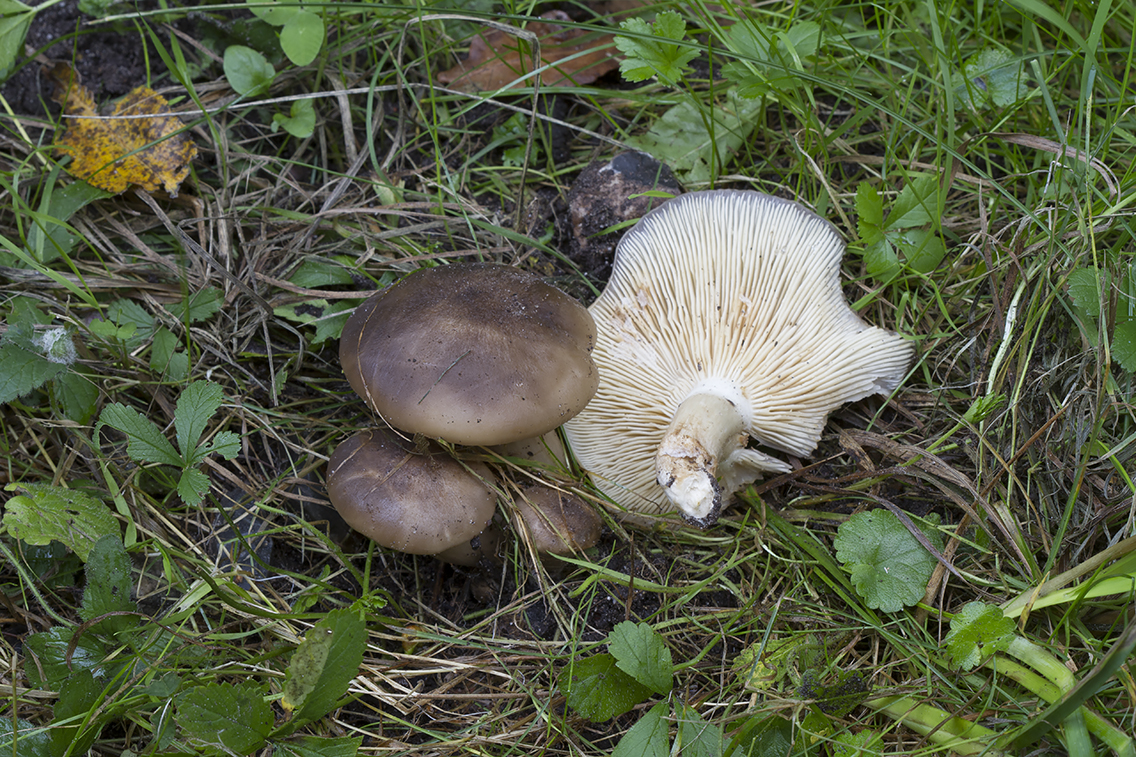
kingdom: Fungi
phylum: Basidiomycota
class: Agaricomycetes
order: Agaricales
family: Lyophyllaceae
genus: Lyophyllum
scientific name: Lyophyllum decastes
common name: Clustered domecap
